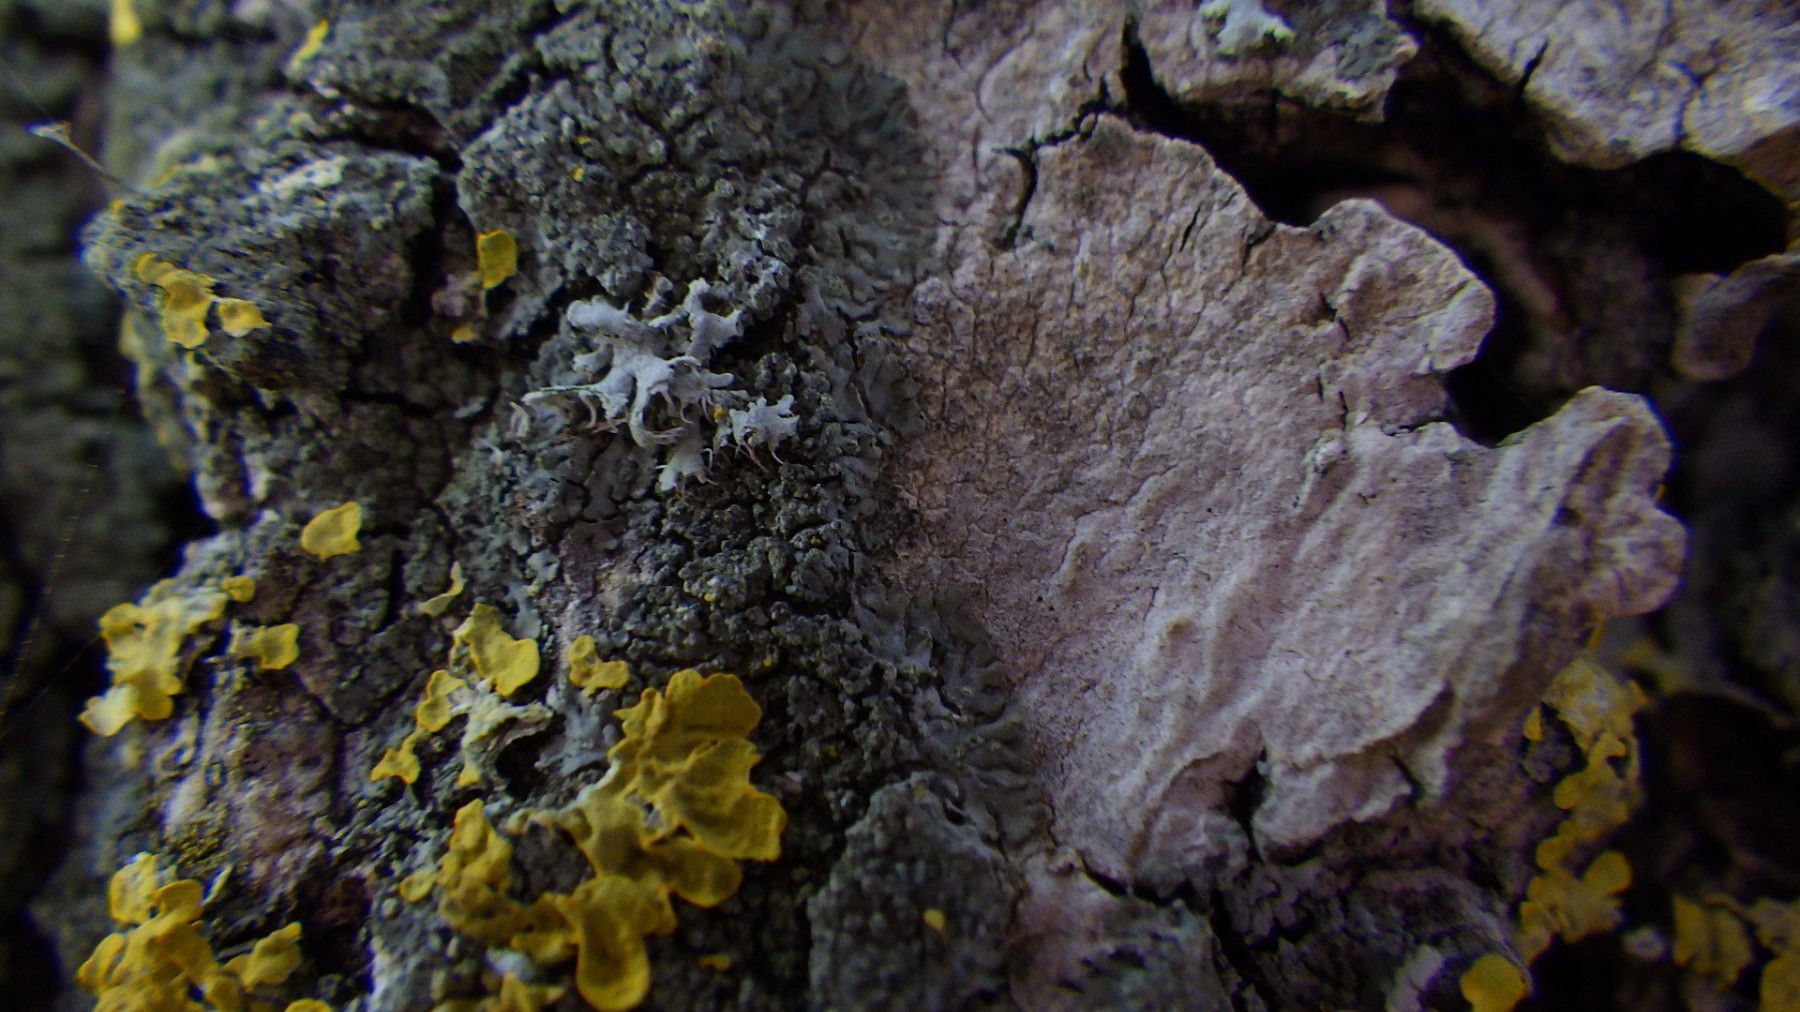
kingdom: Fungi
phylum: Ascomycota
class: Lecanoromycetes
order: Caliciales
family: Physciaceae
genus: Hyperphyscia
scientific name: Hyperphyscia adglutinata
